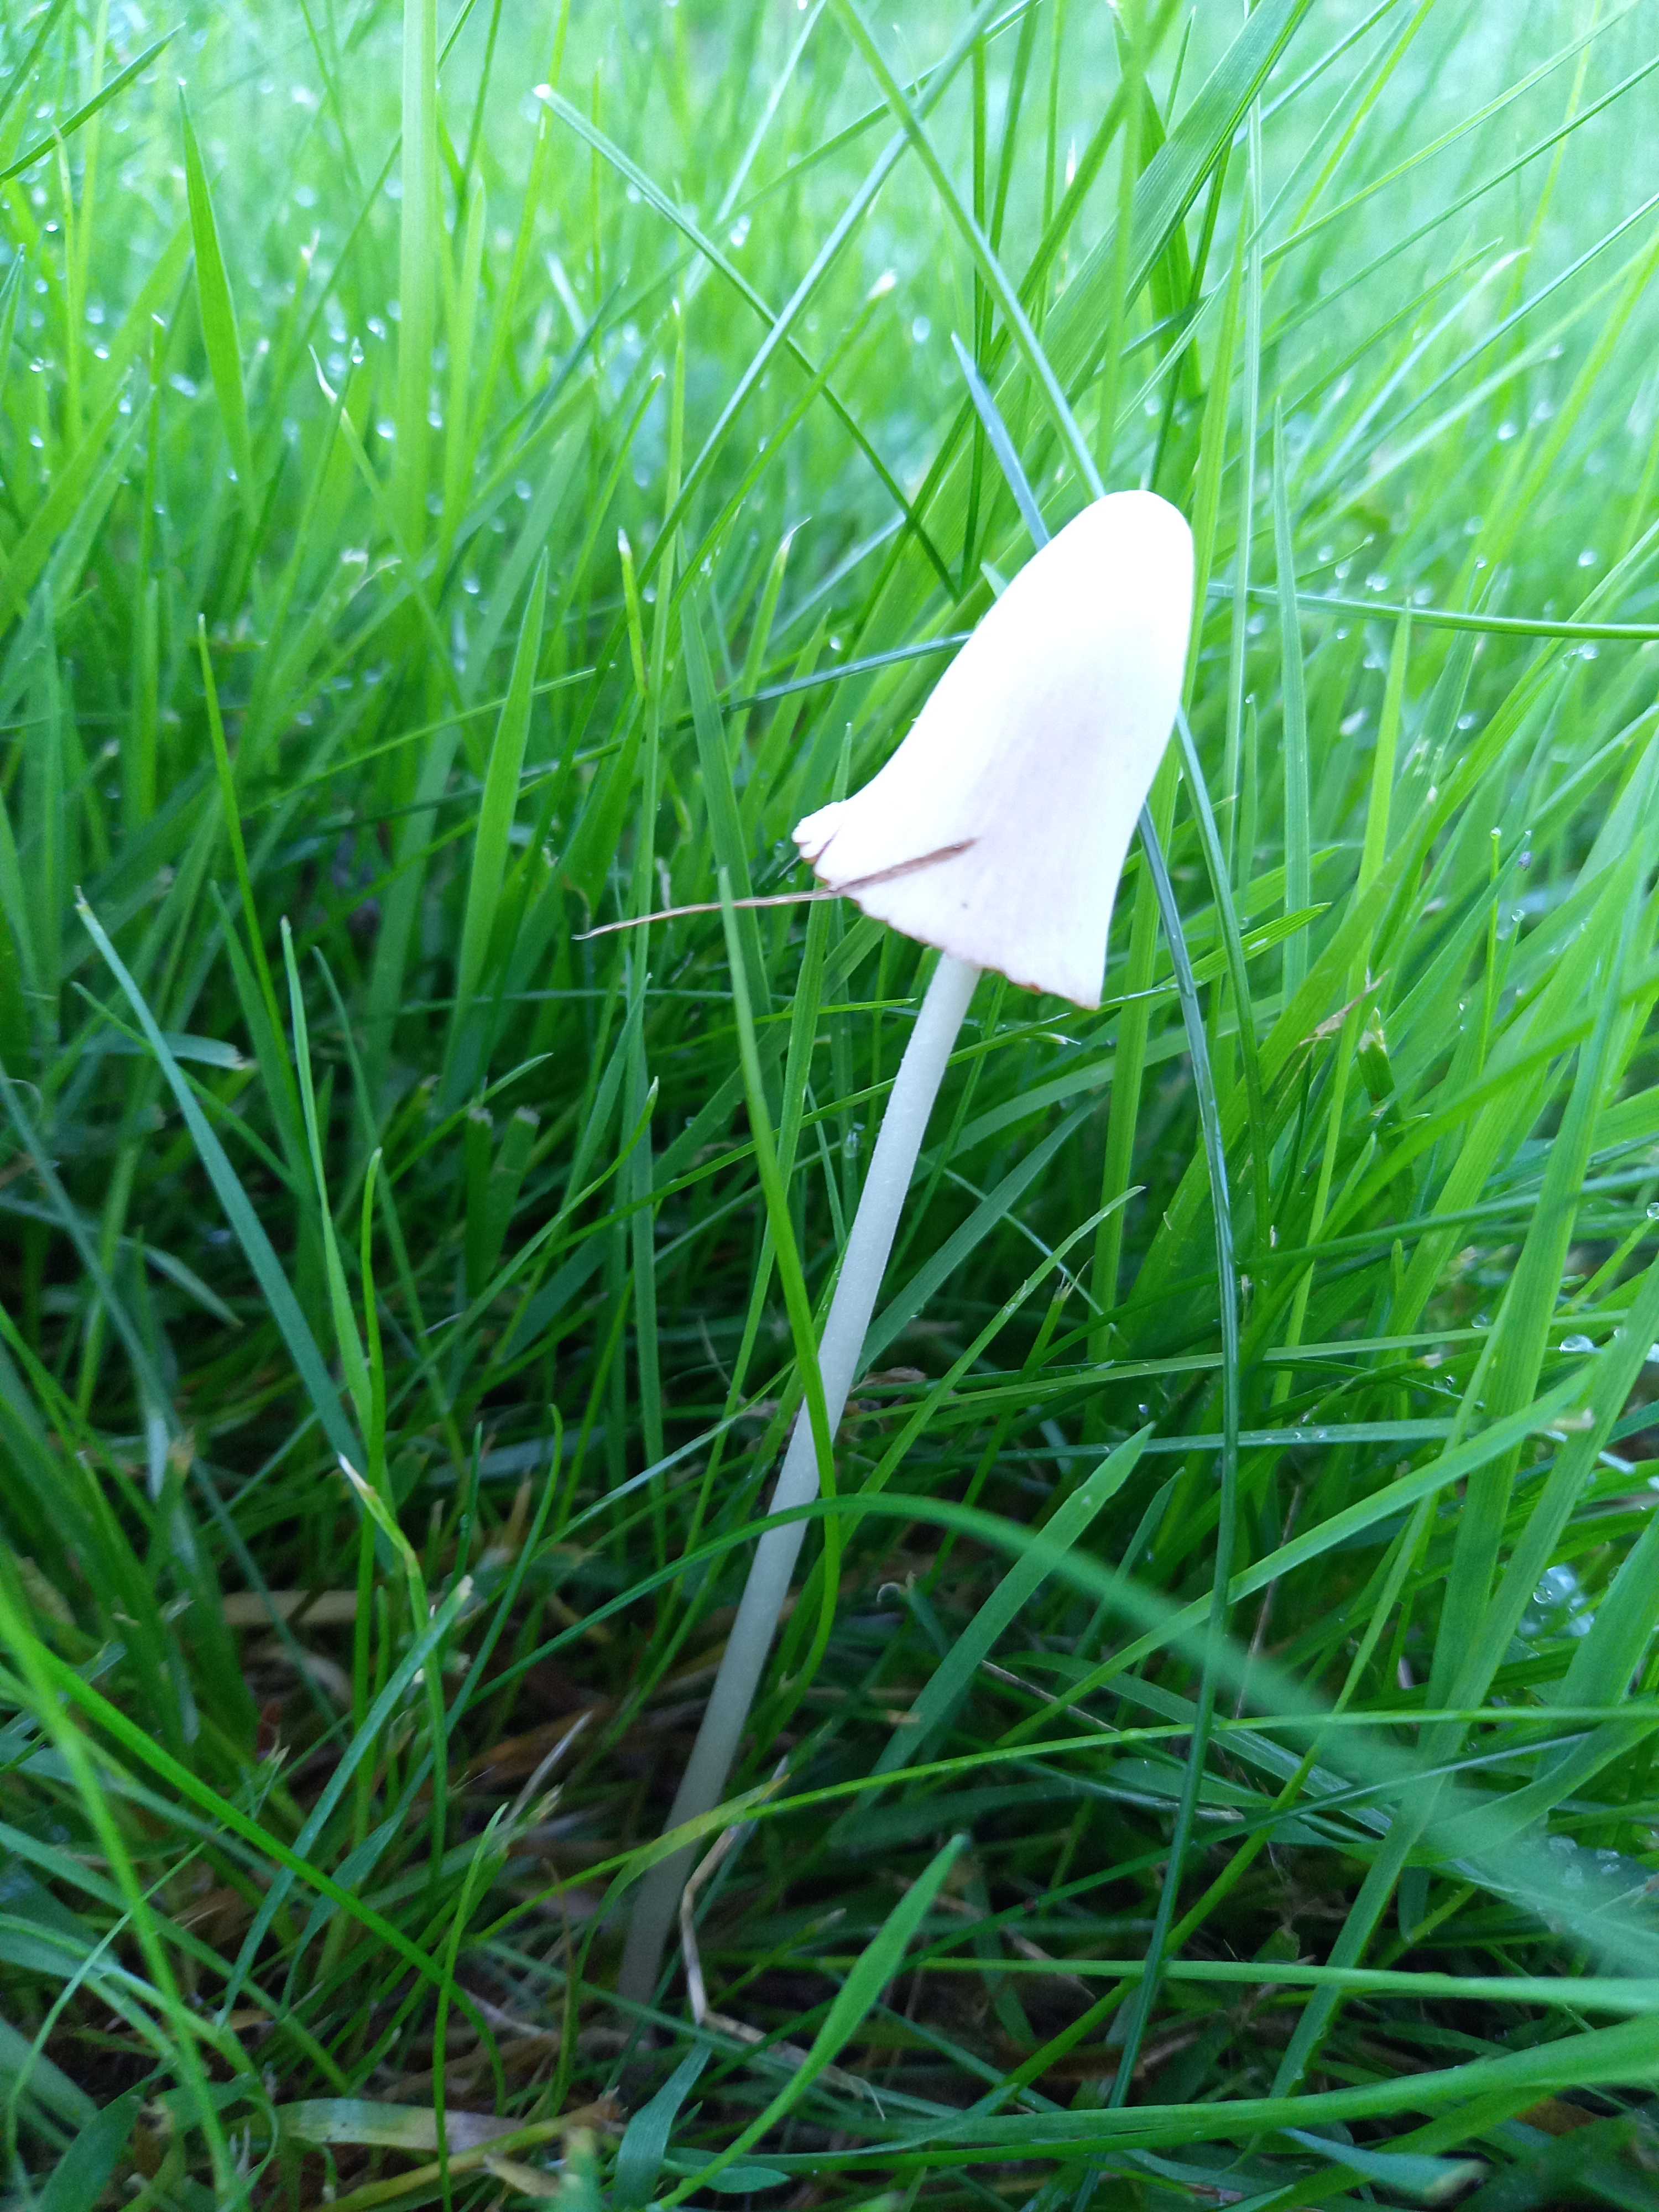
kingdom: Fungi
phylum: Basidiomycota
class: Agaricomycetes
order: Agaricales
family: Bolbitiaceae
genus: Conocybe
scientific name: Conocybe apala
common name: mælkehvid keglehat
